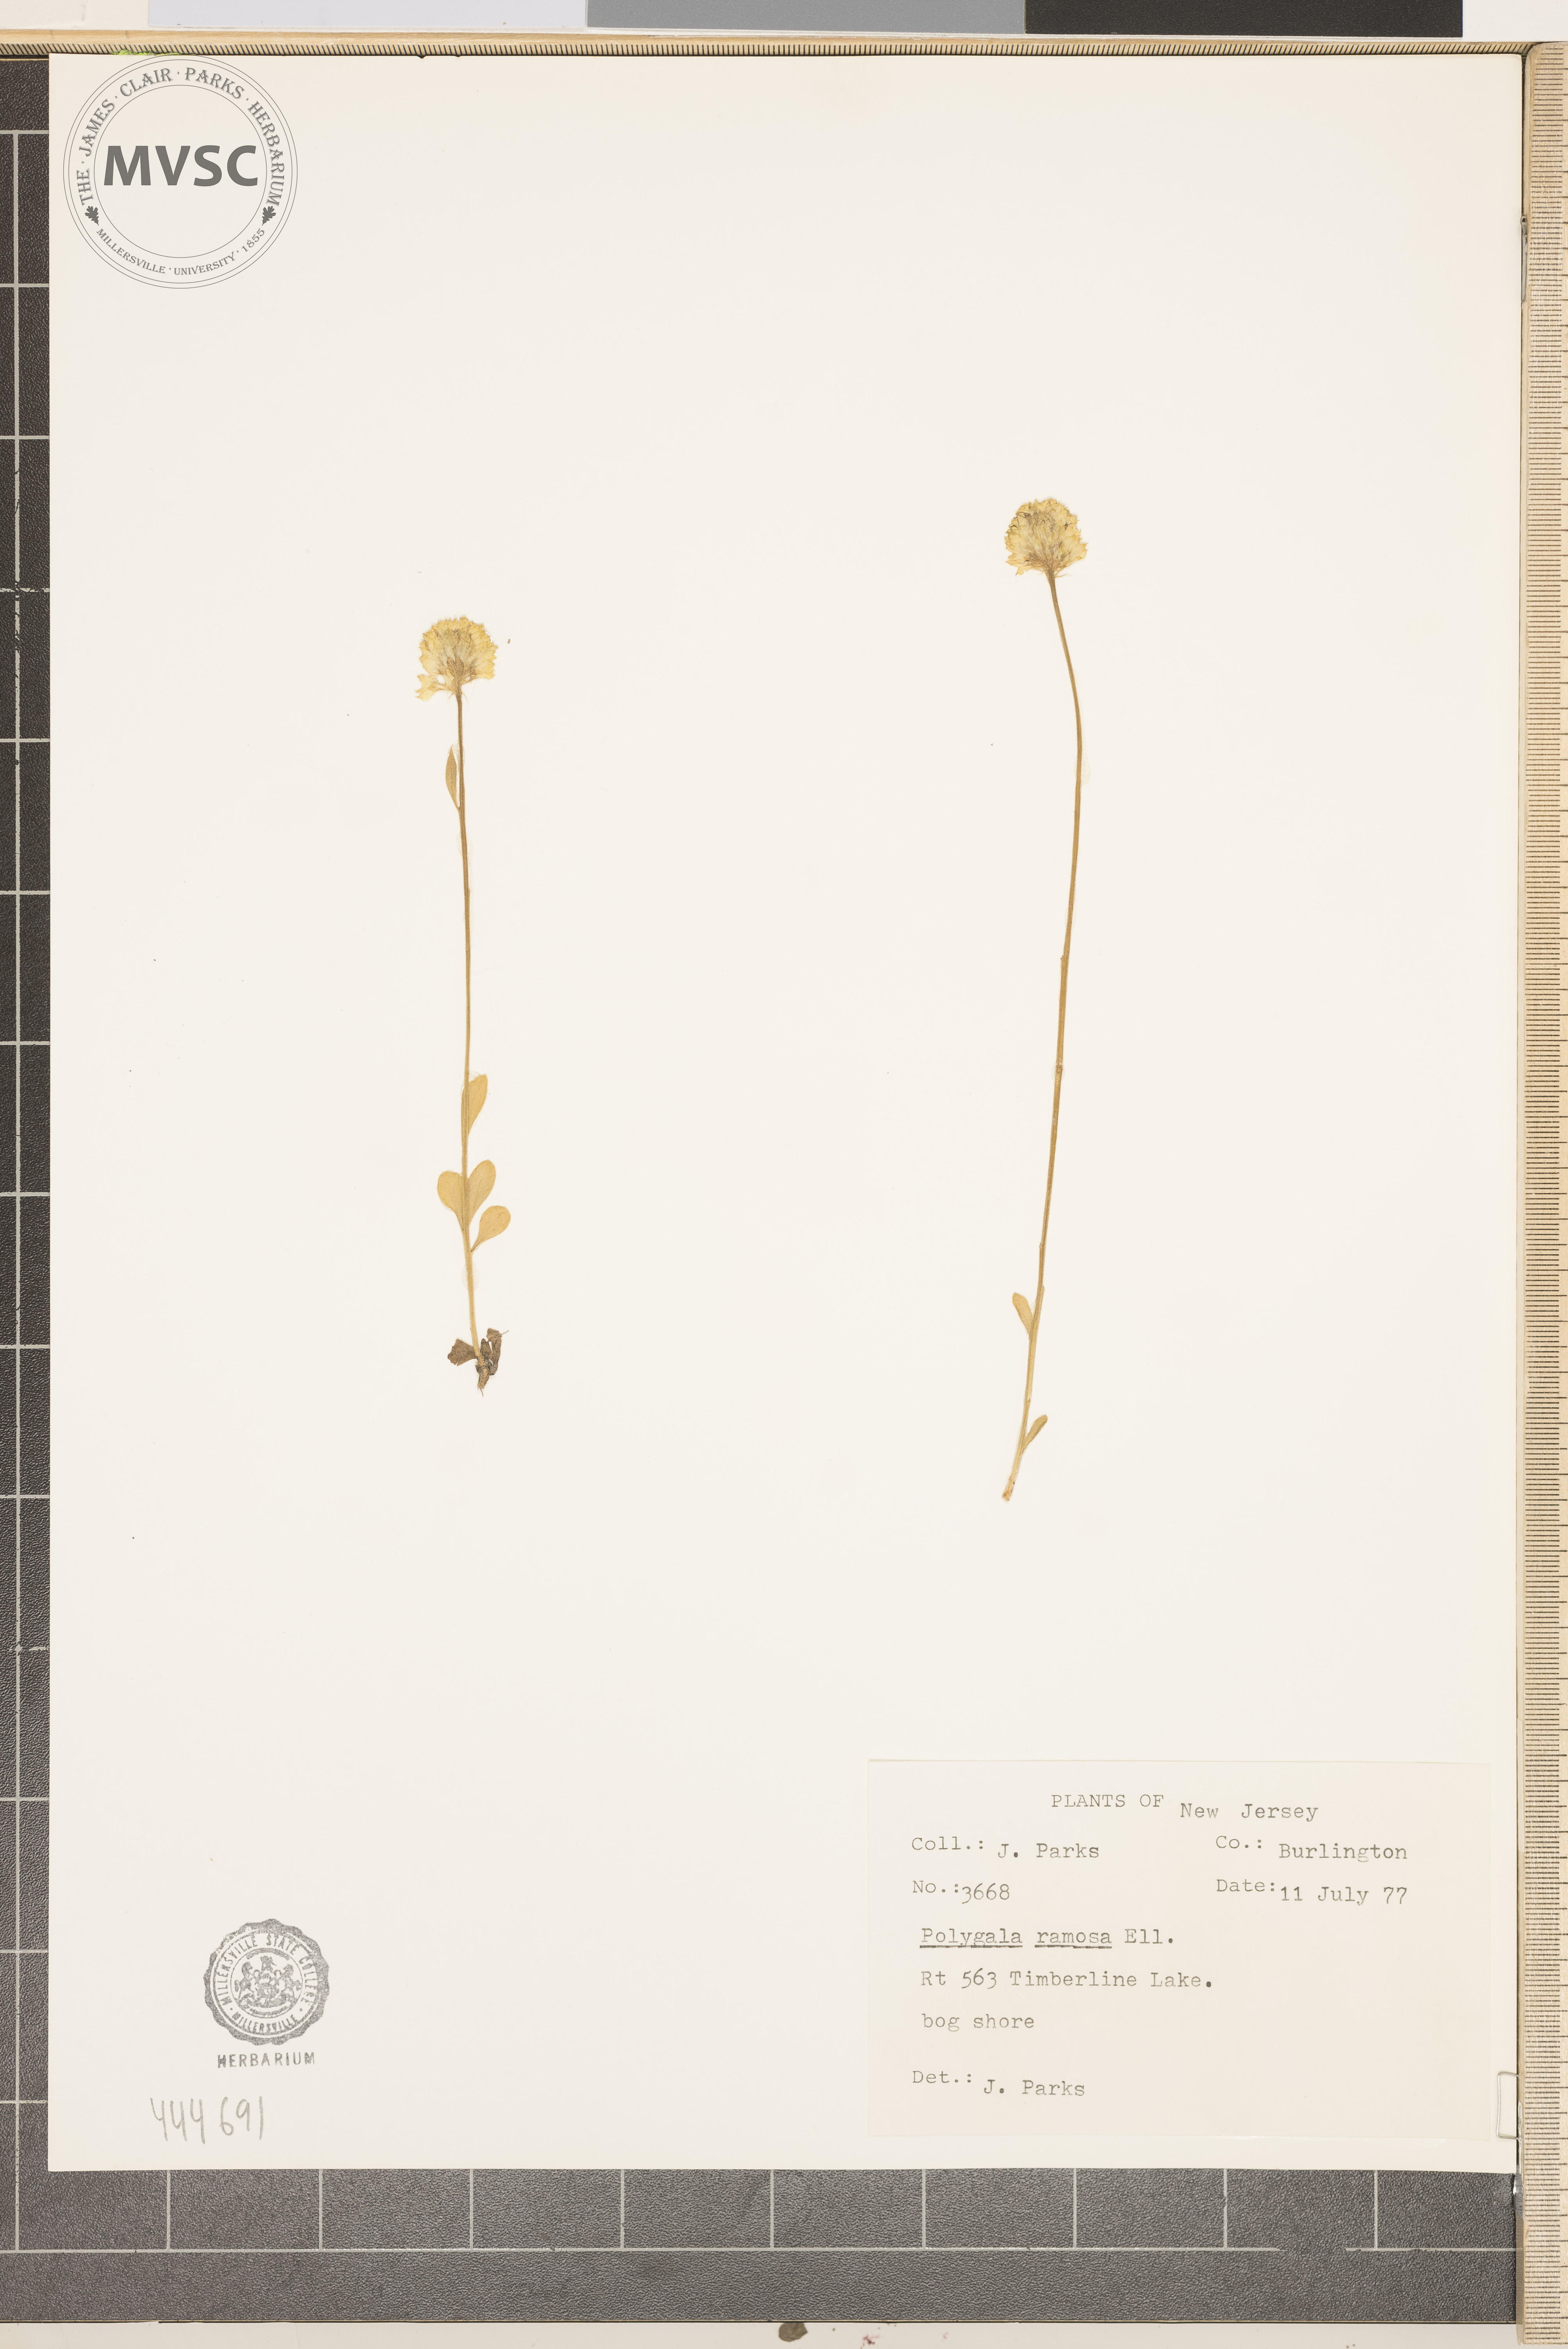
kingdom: Plantae
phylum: Tracheophyta
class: Magnoliopsida
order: Fabales
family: Polygalaceae
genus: Polygala
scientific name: Polygala ramosa
